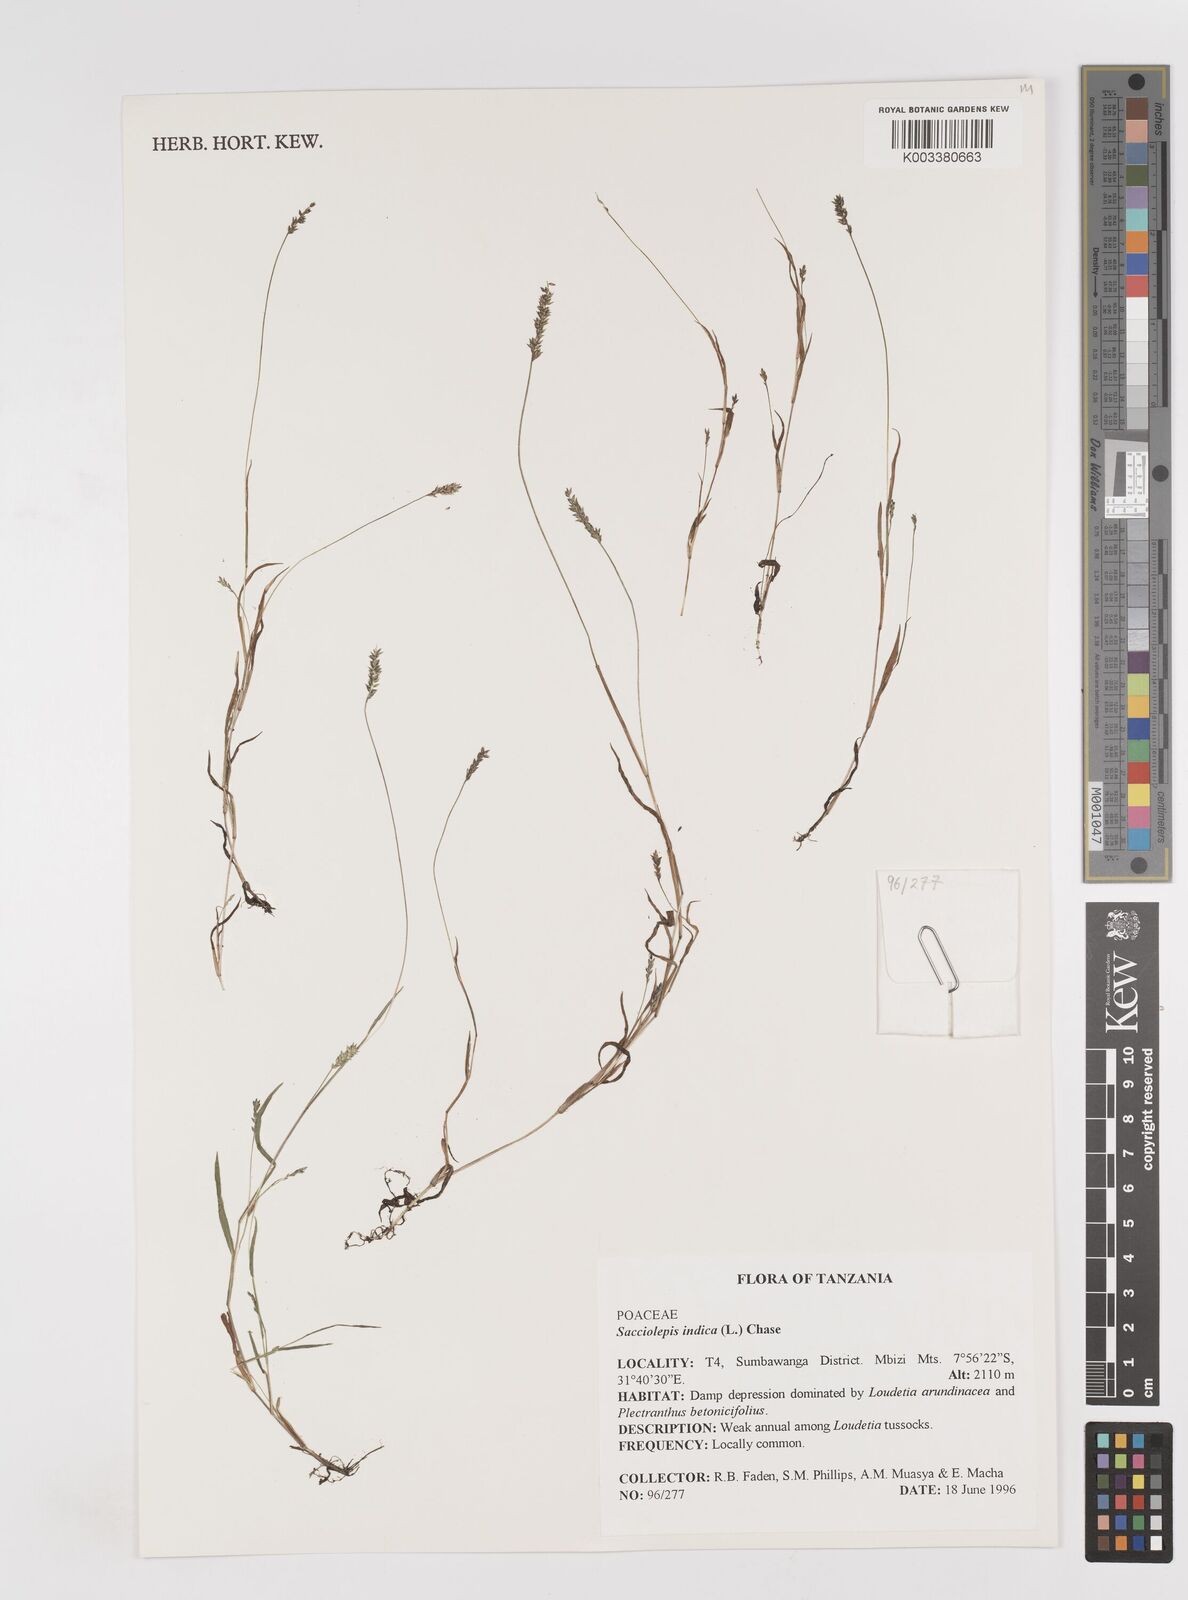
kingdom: Plantae
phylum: Tracheophyta
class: Liliopsida
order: Poales
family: Poaceae
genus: Sacciolepis
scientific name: Sacciolepis indica
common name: Glenwoodgrass
